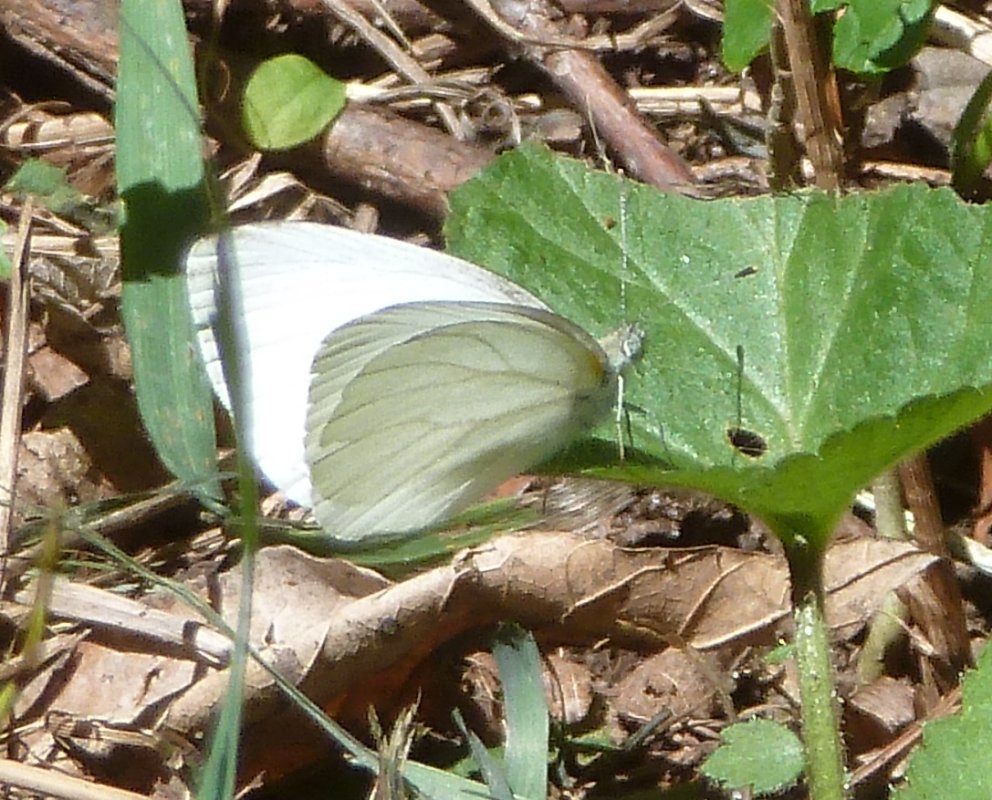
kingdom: Animalia
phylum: Arthropoda
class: Insecta
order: Lepidoptera
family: Pieridae
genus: Pieris
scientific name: Pieris oleracea
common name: Mustard White
